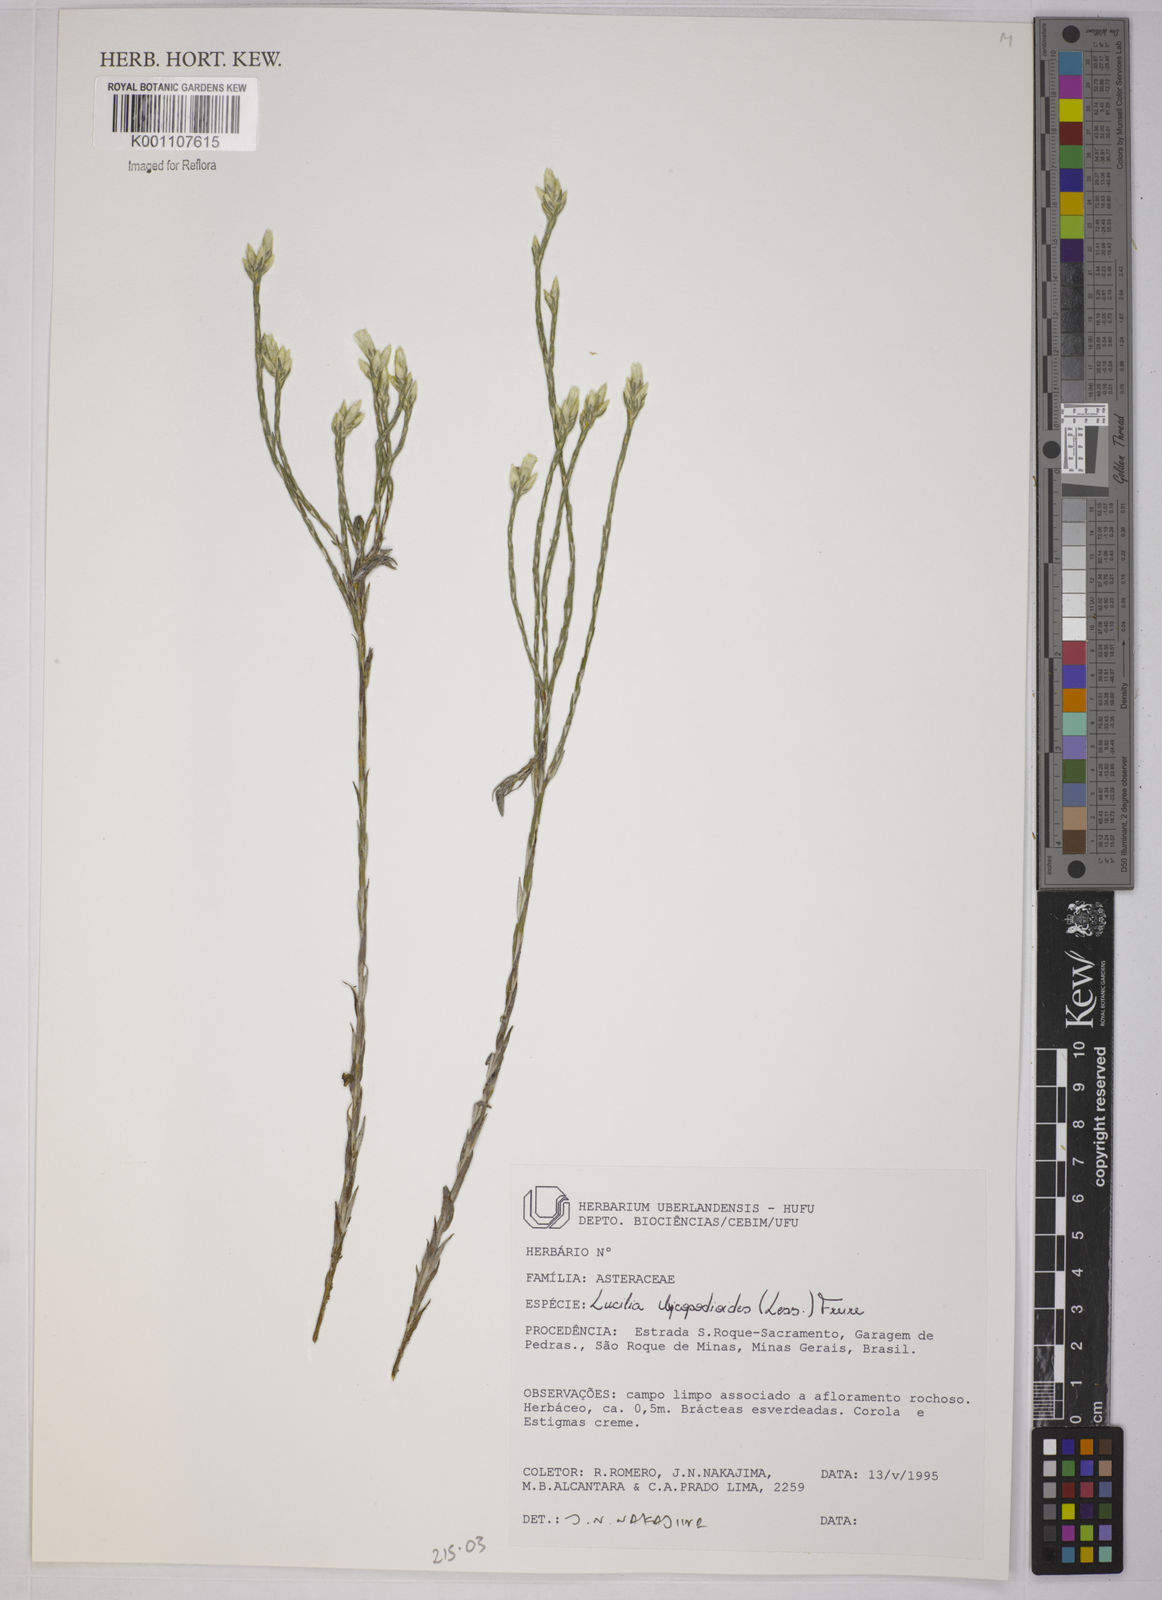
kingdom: Plantae
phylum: Tracheophyta
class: Magnoliopsida
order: Asterales
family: Asteraceae
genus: Lucilia
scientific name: Lucilia lycopodioides
